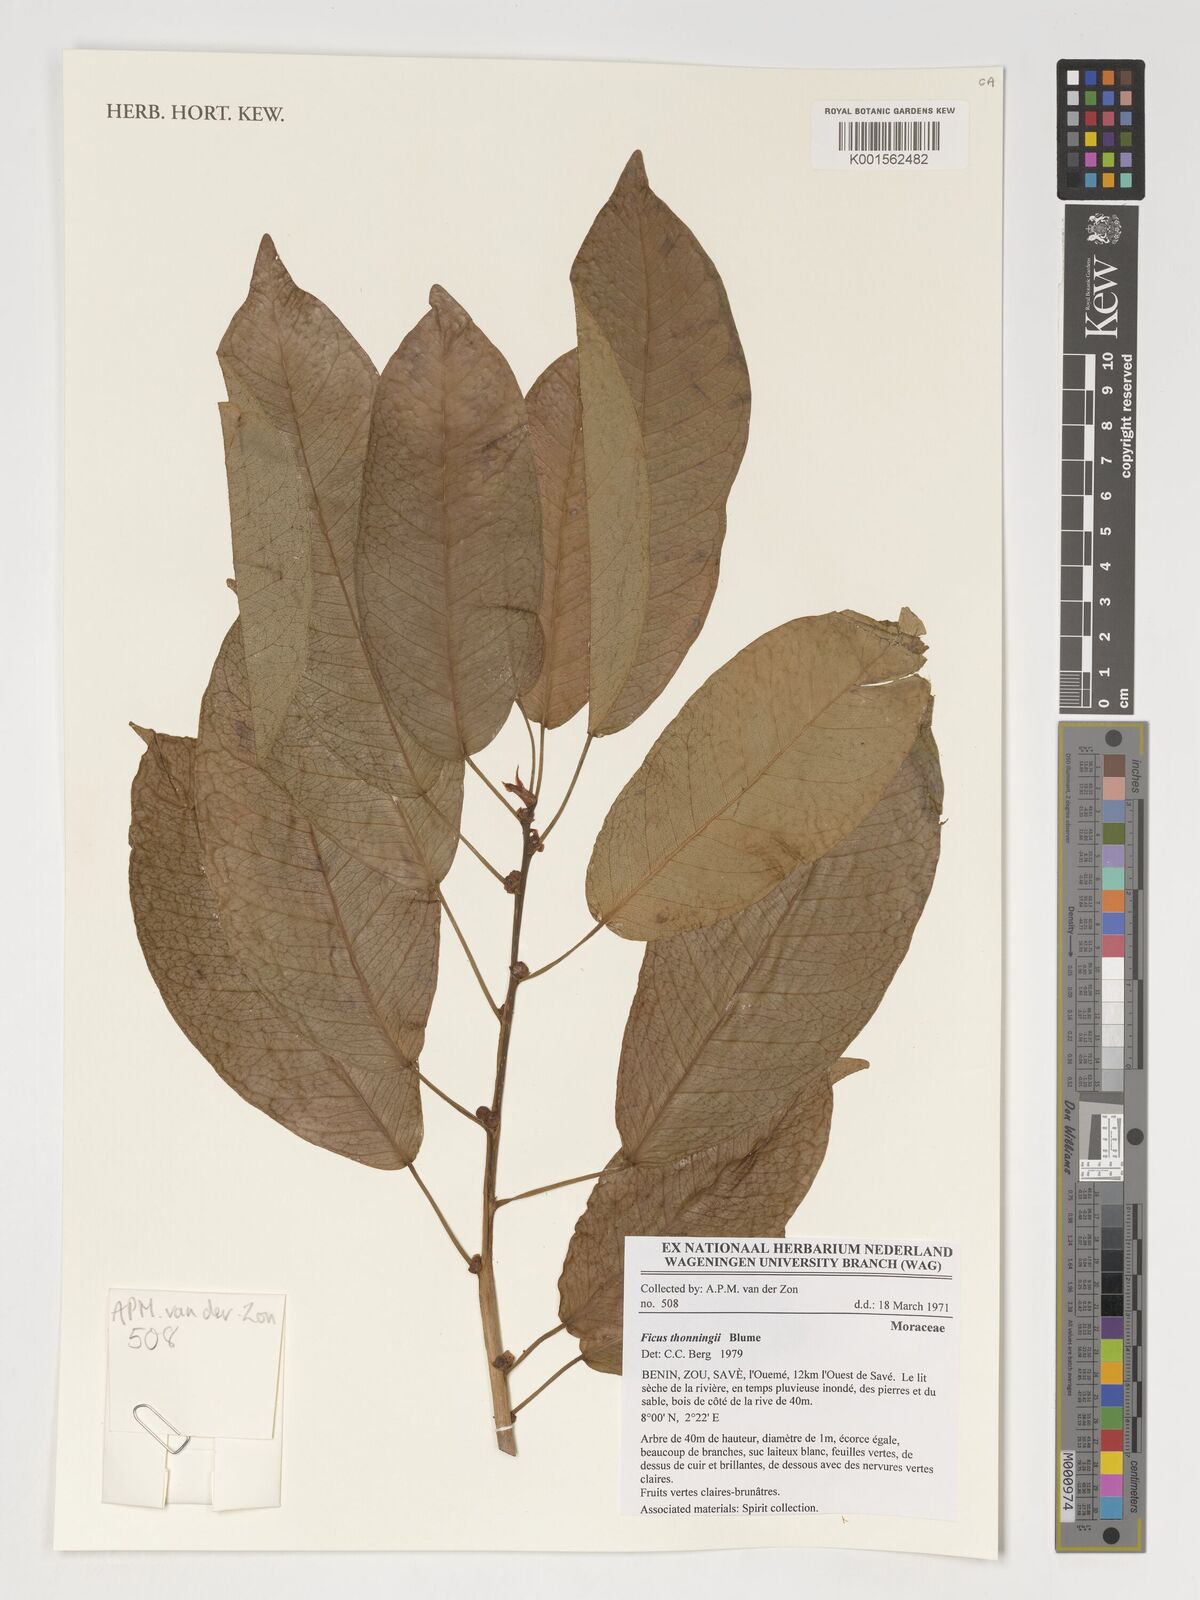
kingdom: Plantae
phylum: Tracheophyta
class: Magnoliopsida
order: Rosales
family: Moraceae
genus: Ficus
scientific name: Ficus thonningii
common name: Fig
